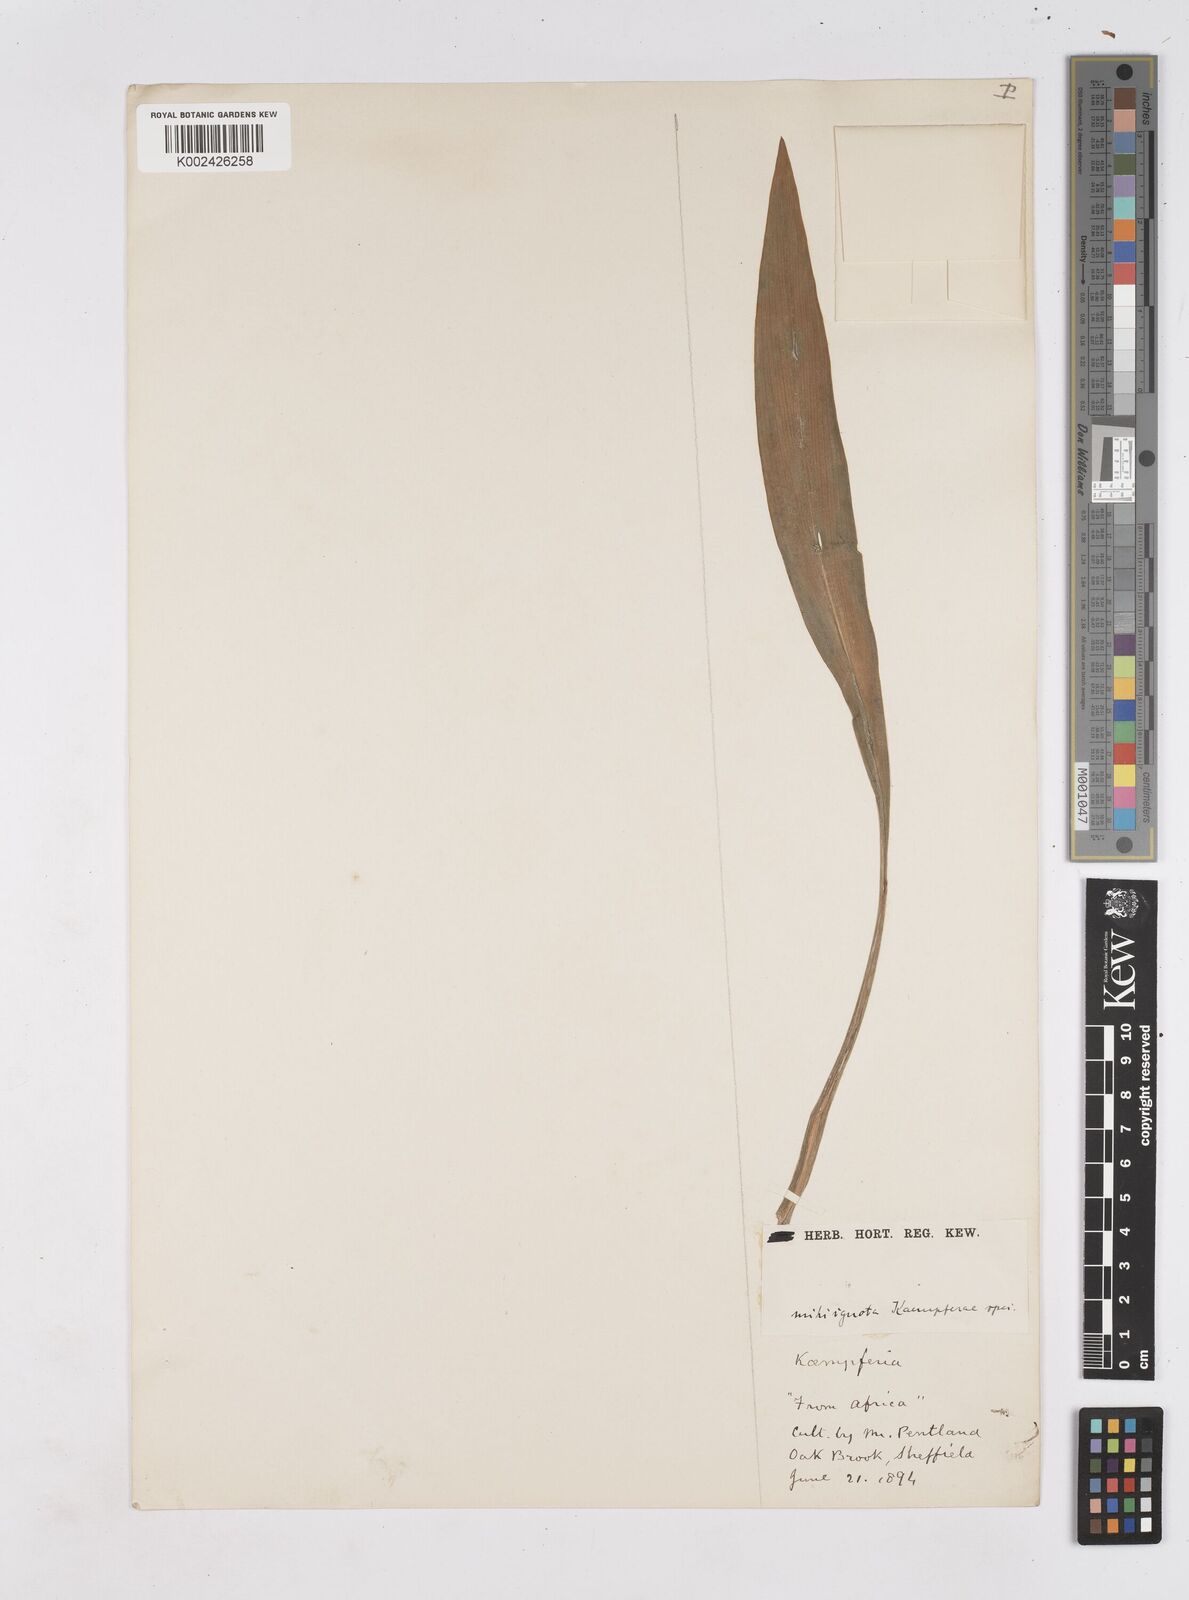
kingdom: Plantae
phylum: Tracheophyta
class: Liliopsida
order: Zingiberales
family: Zingiberaceae
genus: Siphonochilus
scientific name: Siphonochilus
